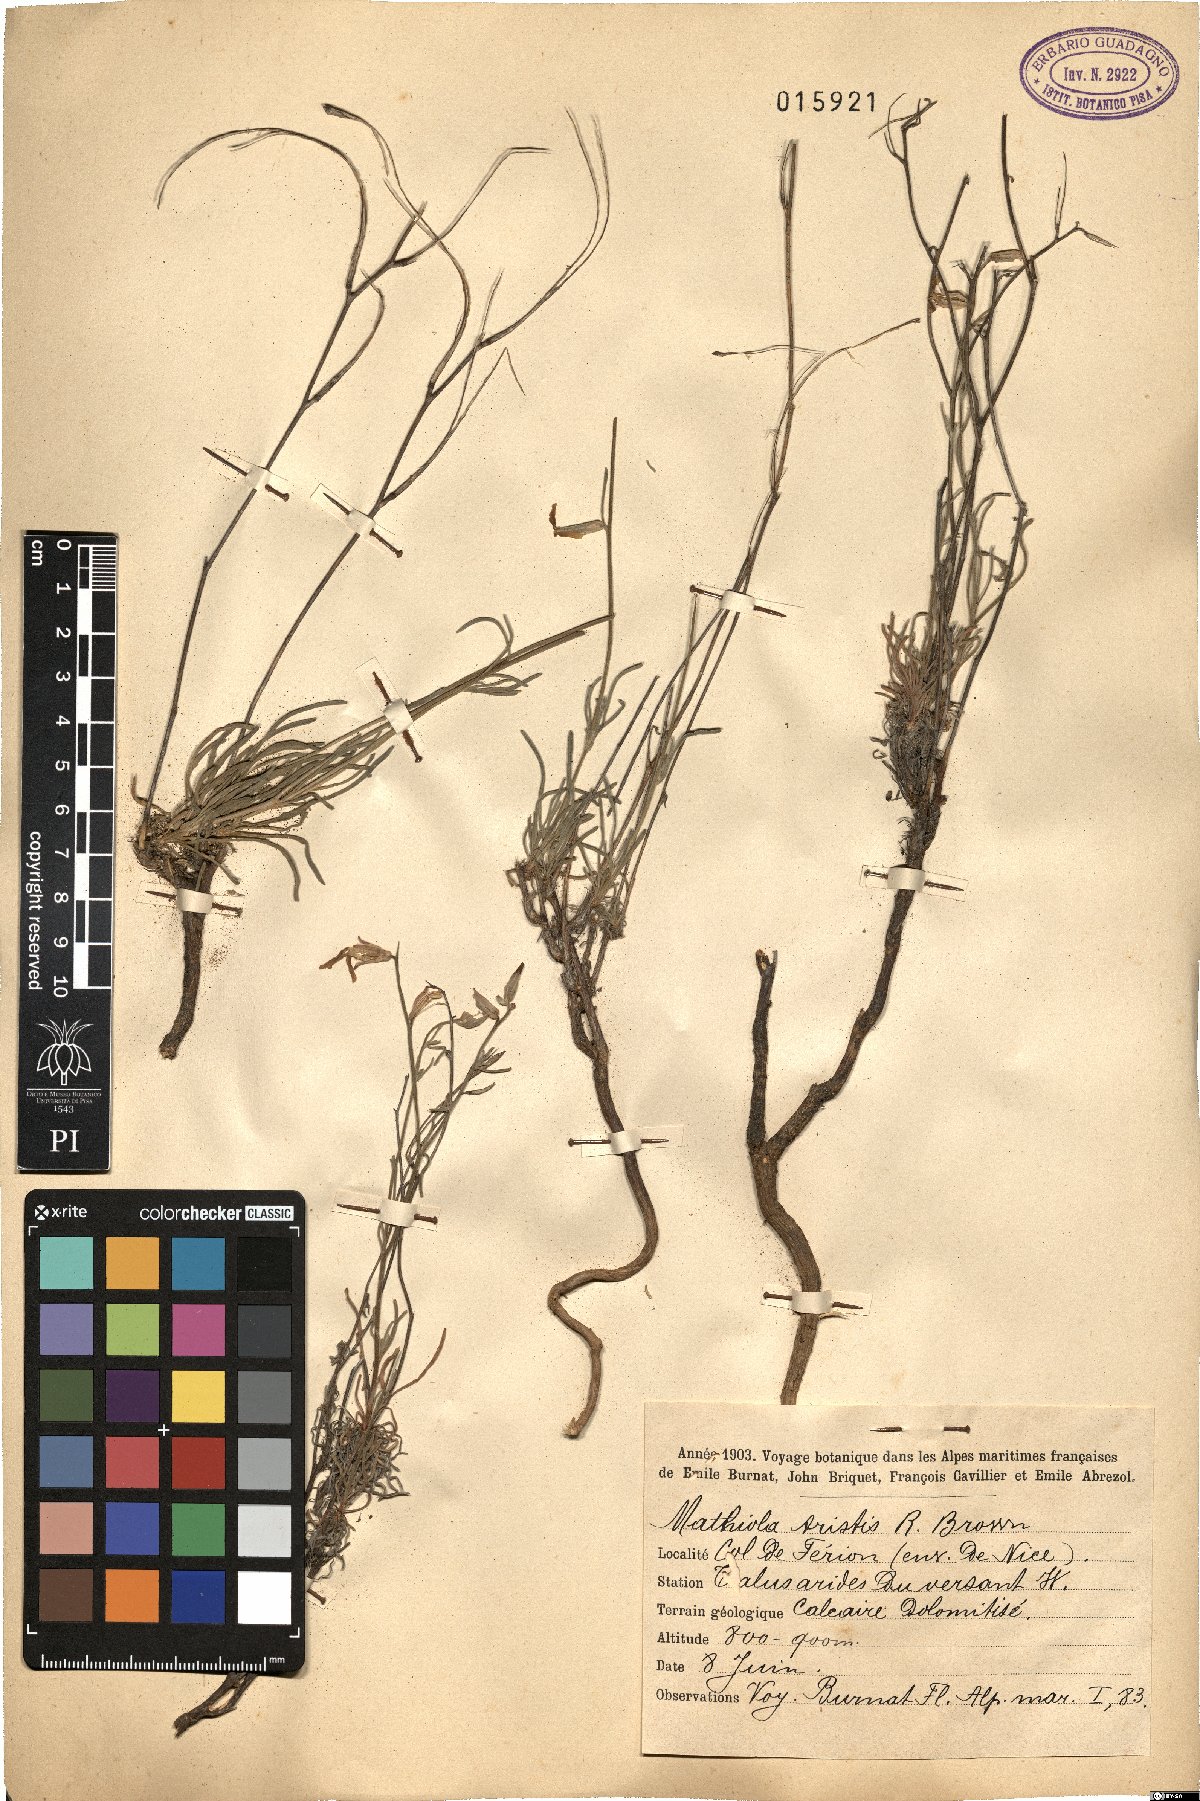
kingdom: Plantae
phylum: Tracheophyta
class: Magnoliopsida
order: Brassicales
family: Brassicaceae
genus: Matthiola
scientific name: Matthiola fruticulosa
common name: Sad stock
